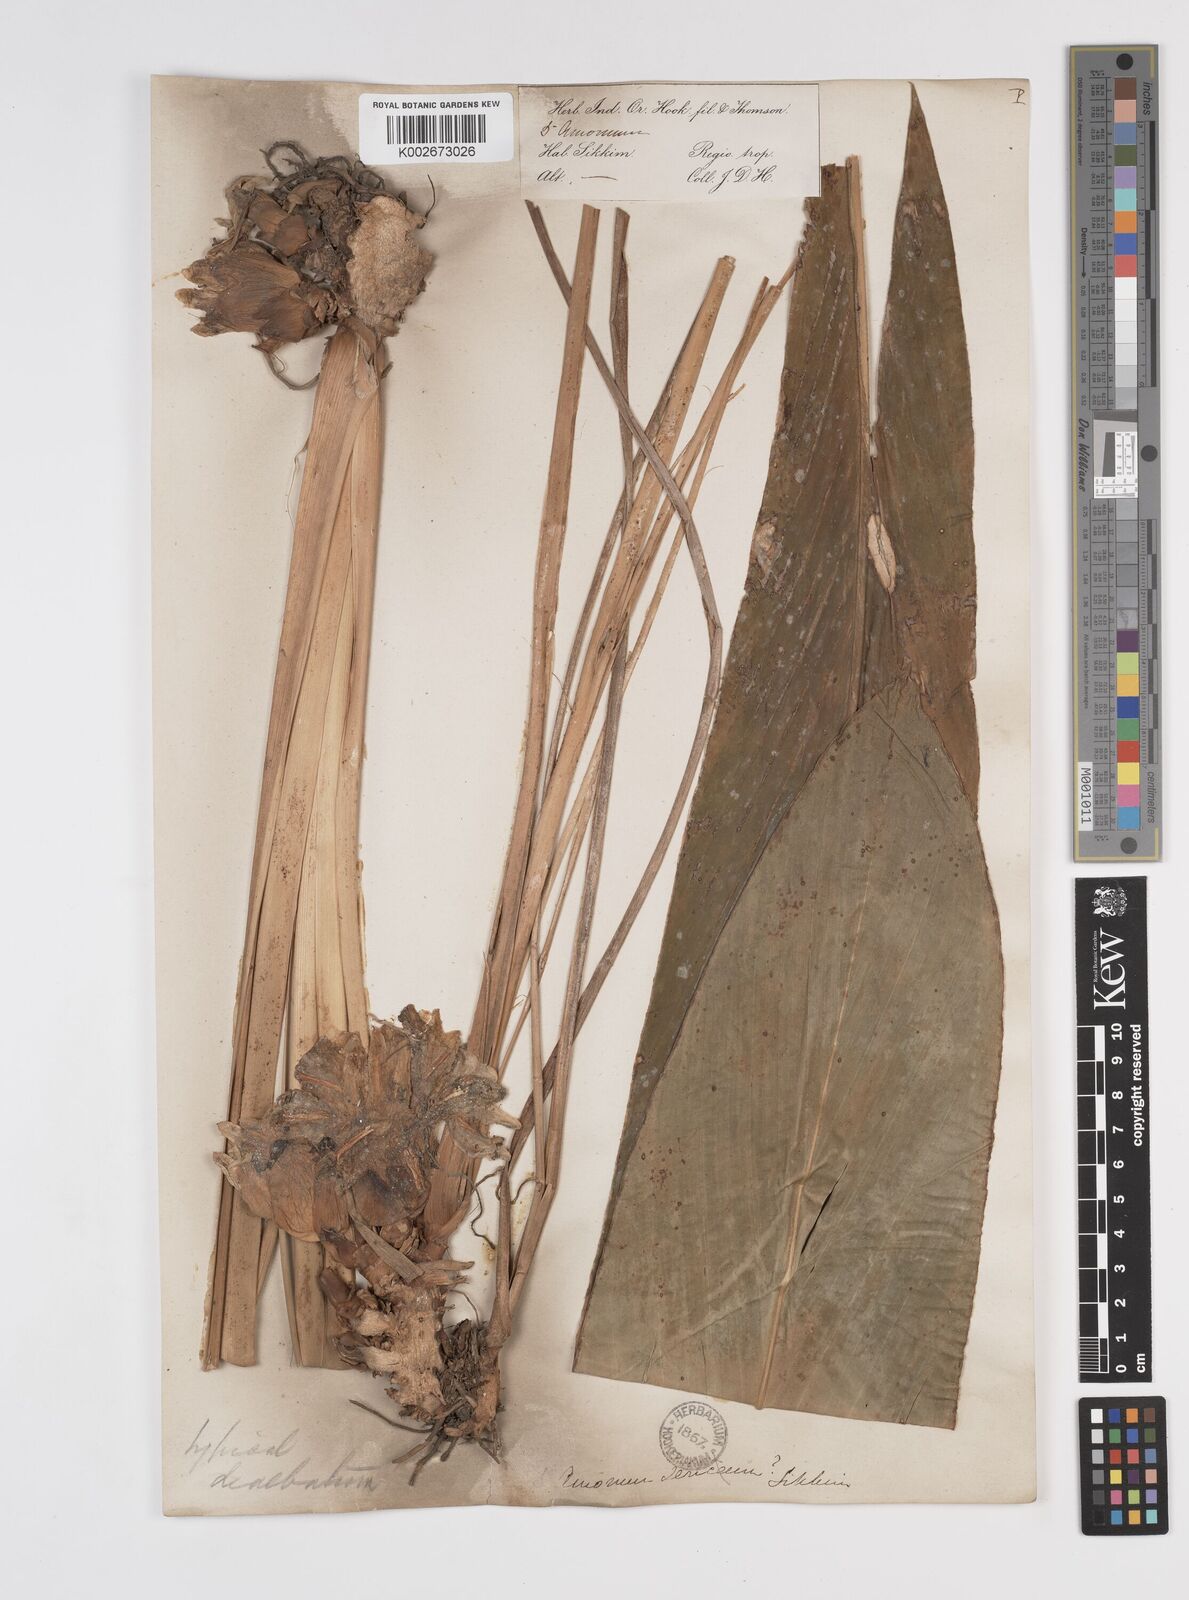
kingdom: Plantae
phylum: Tracheophyta
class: Liliopsida
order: Zingiberales
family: Zingiberaceae
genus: Amomum
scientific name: Amomum dealbatum
